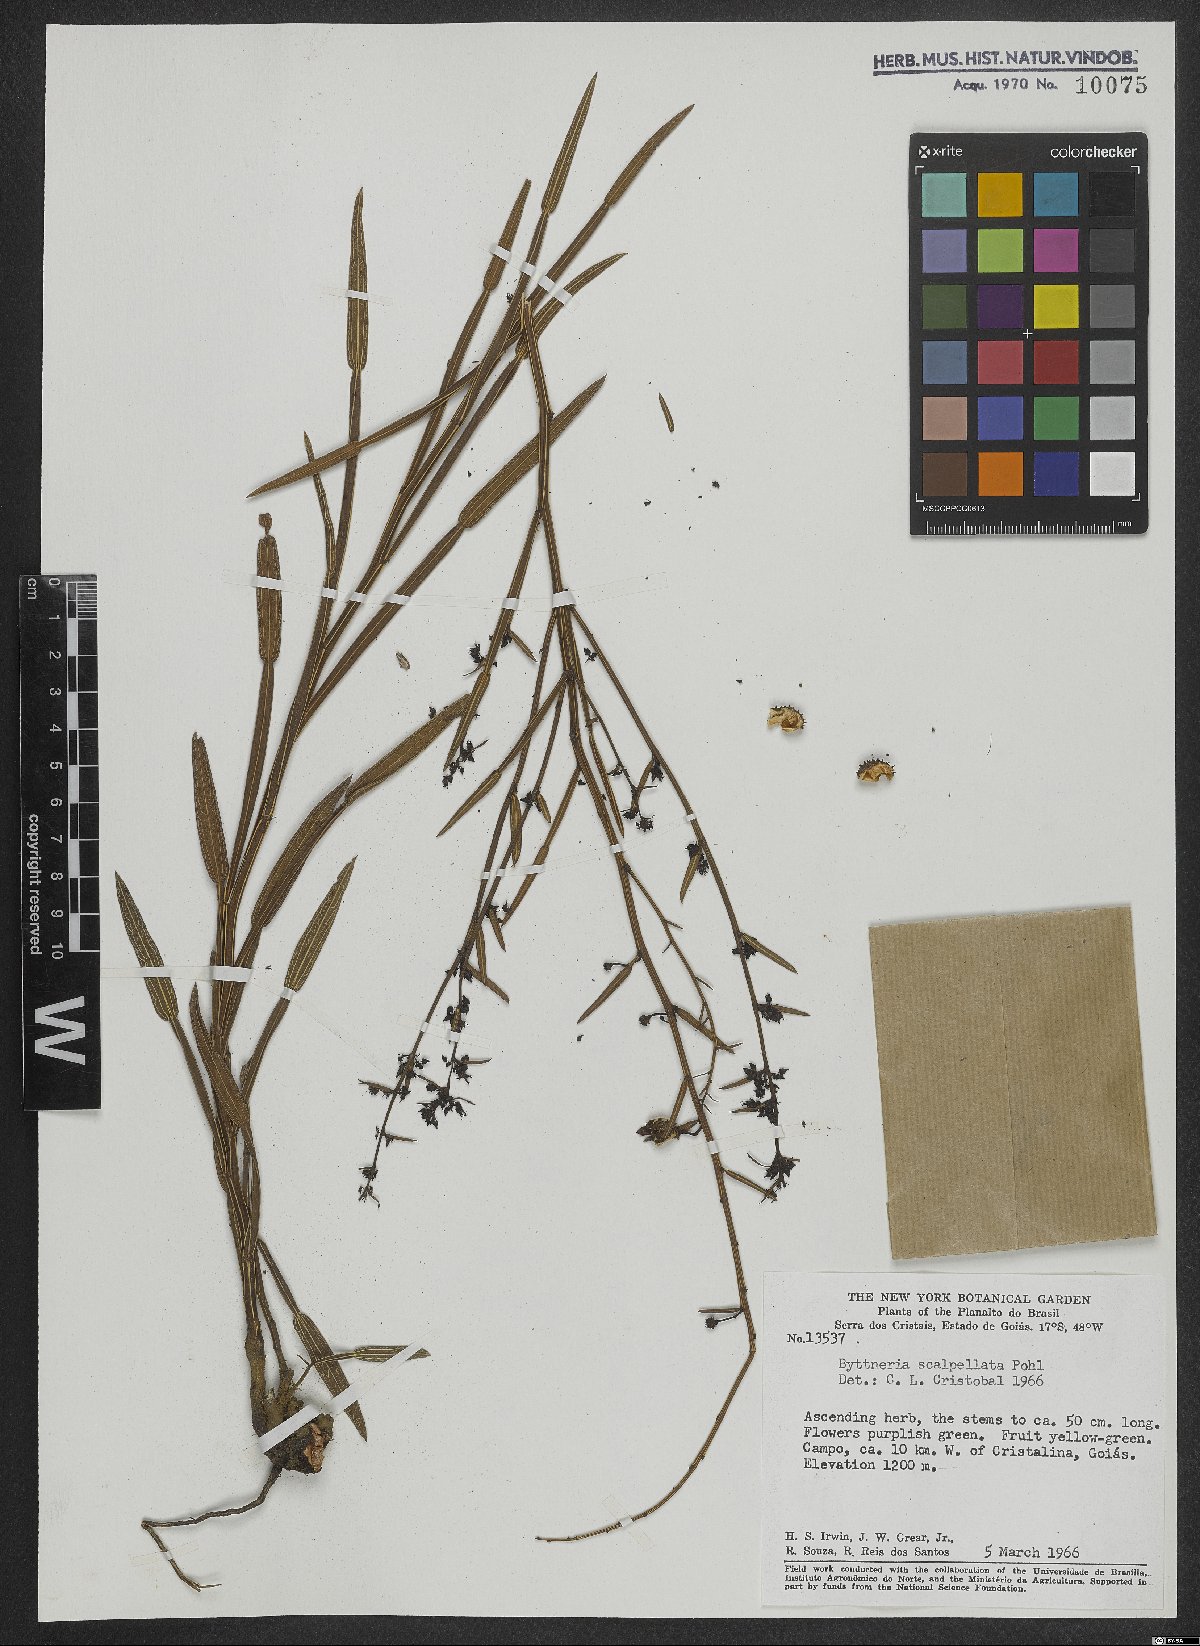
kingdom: Plantae
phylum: Tracheophyta
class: Magnoliopsida
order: Malvales
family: Malvaceae
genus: Byttneria
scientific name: Byttneria scalpellata
